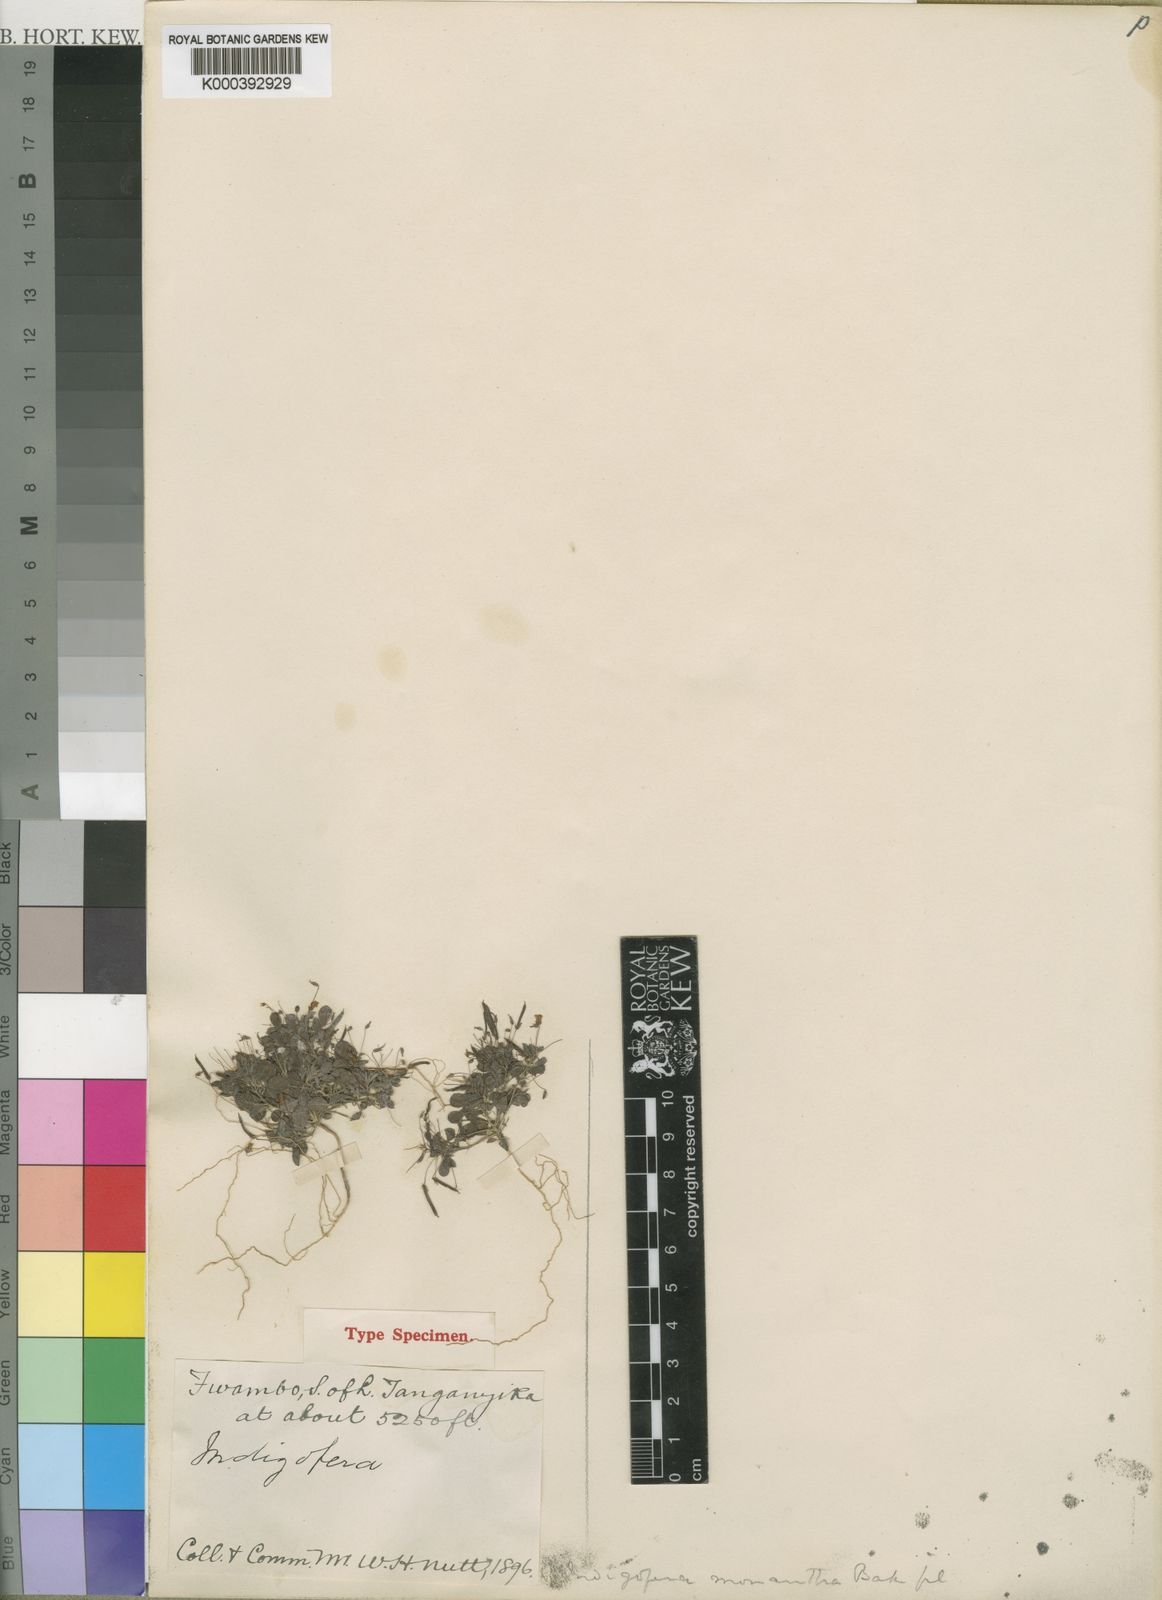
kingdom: Plantae
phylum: Tracheophyta
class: Magnoliopsida
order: Fabales
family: Fabaceae
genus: Indigofera
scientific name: Indigofera monantha
